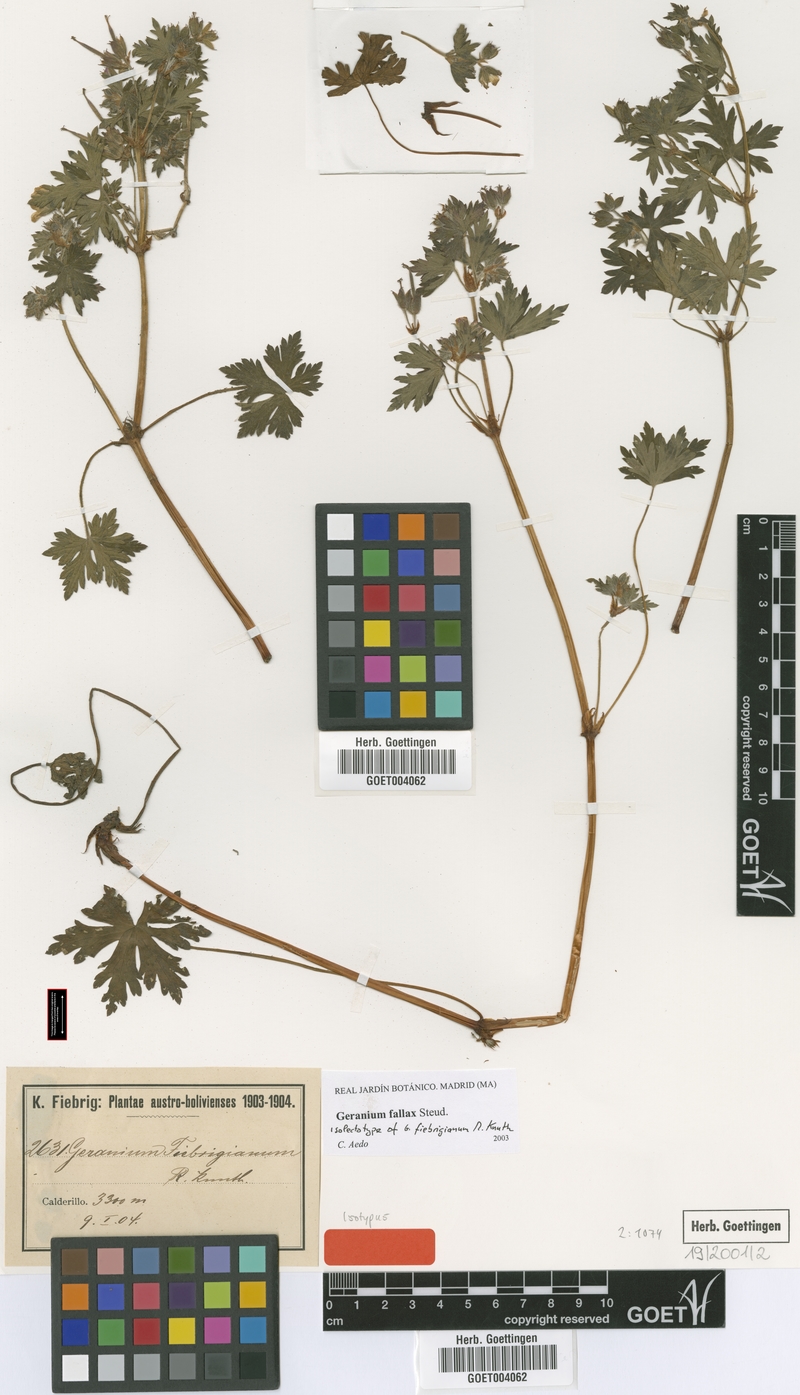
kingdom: Plantae
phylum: Tracheophyta
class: Magnoliopsida
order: Geraniales
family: Geraniaceae
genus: Geranium
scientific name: Geranium fallax
